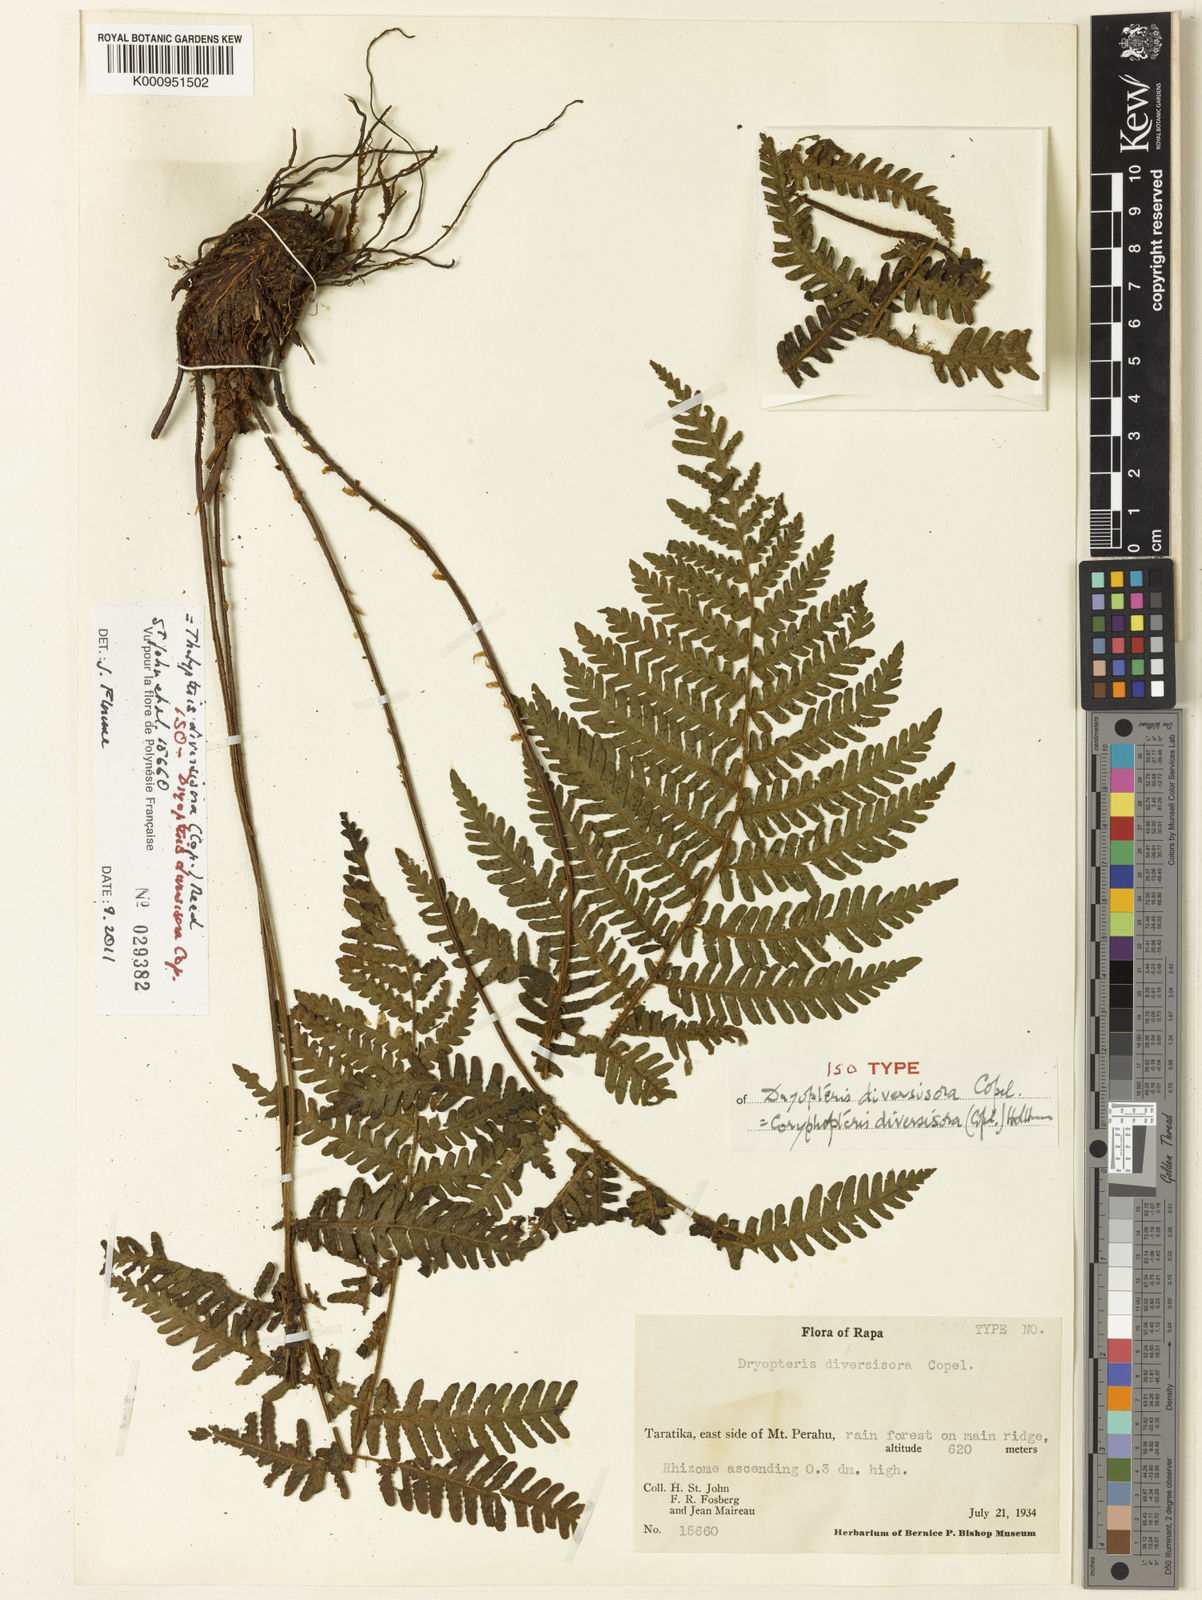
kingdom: Plantae
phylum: Tracheophyta
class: Polypodiopsida
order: Polypodiales
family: Thelypteridaceae
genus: Coryphopteris
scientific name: Coryphopteris diversisora
